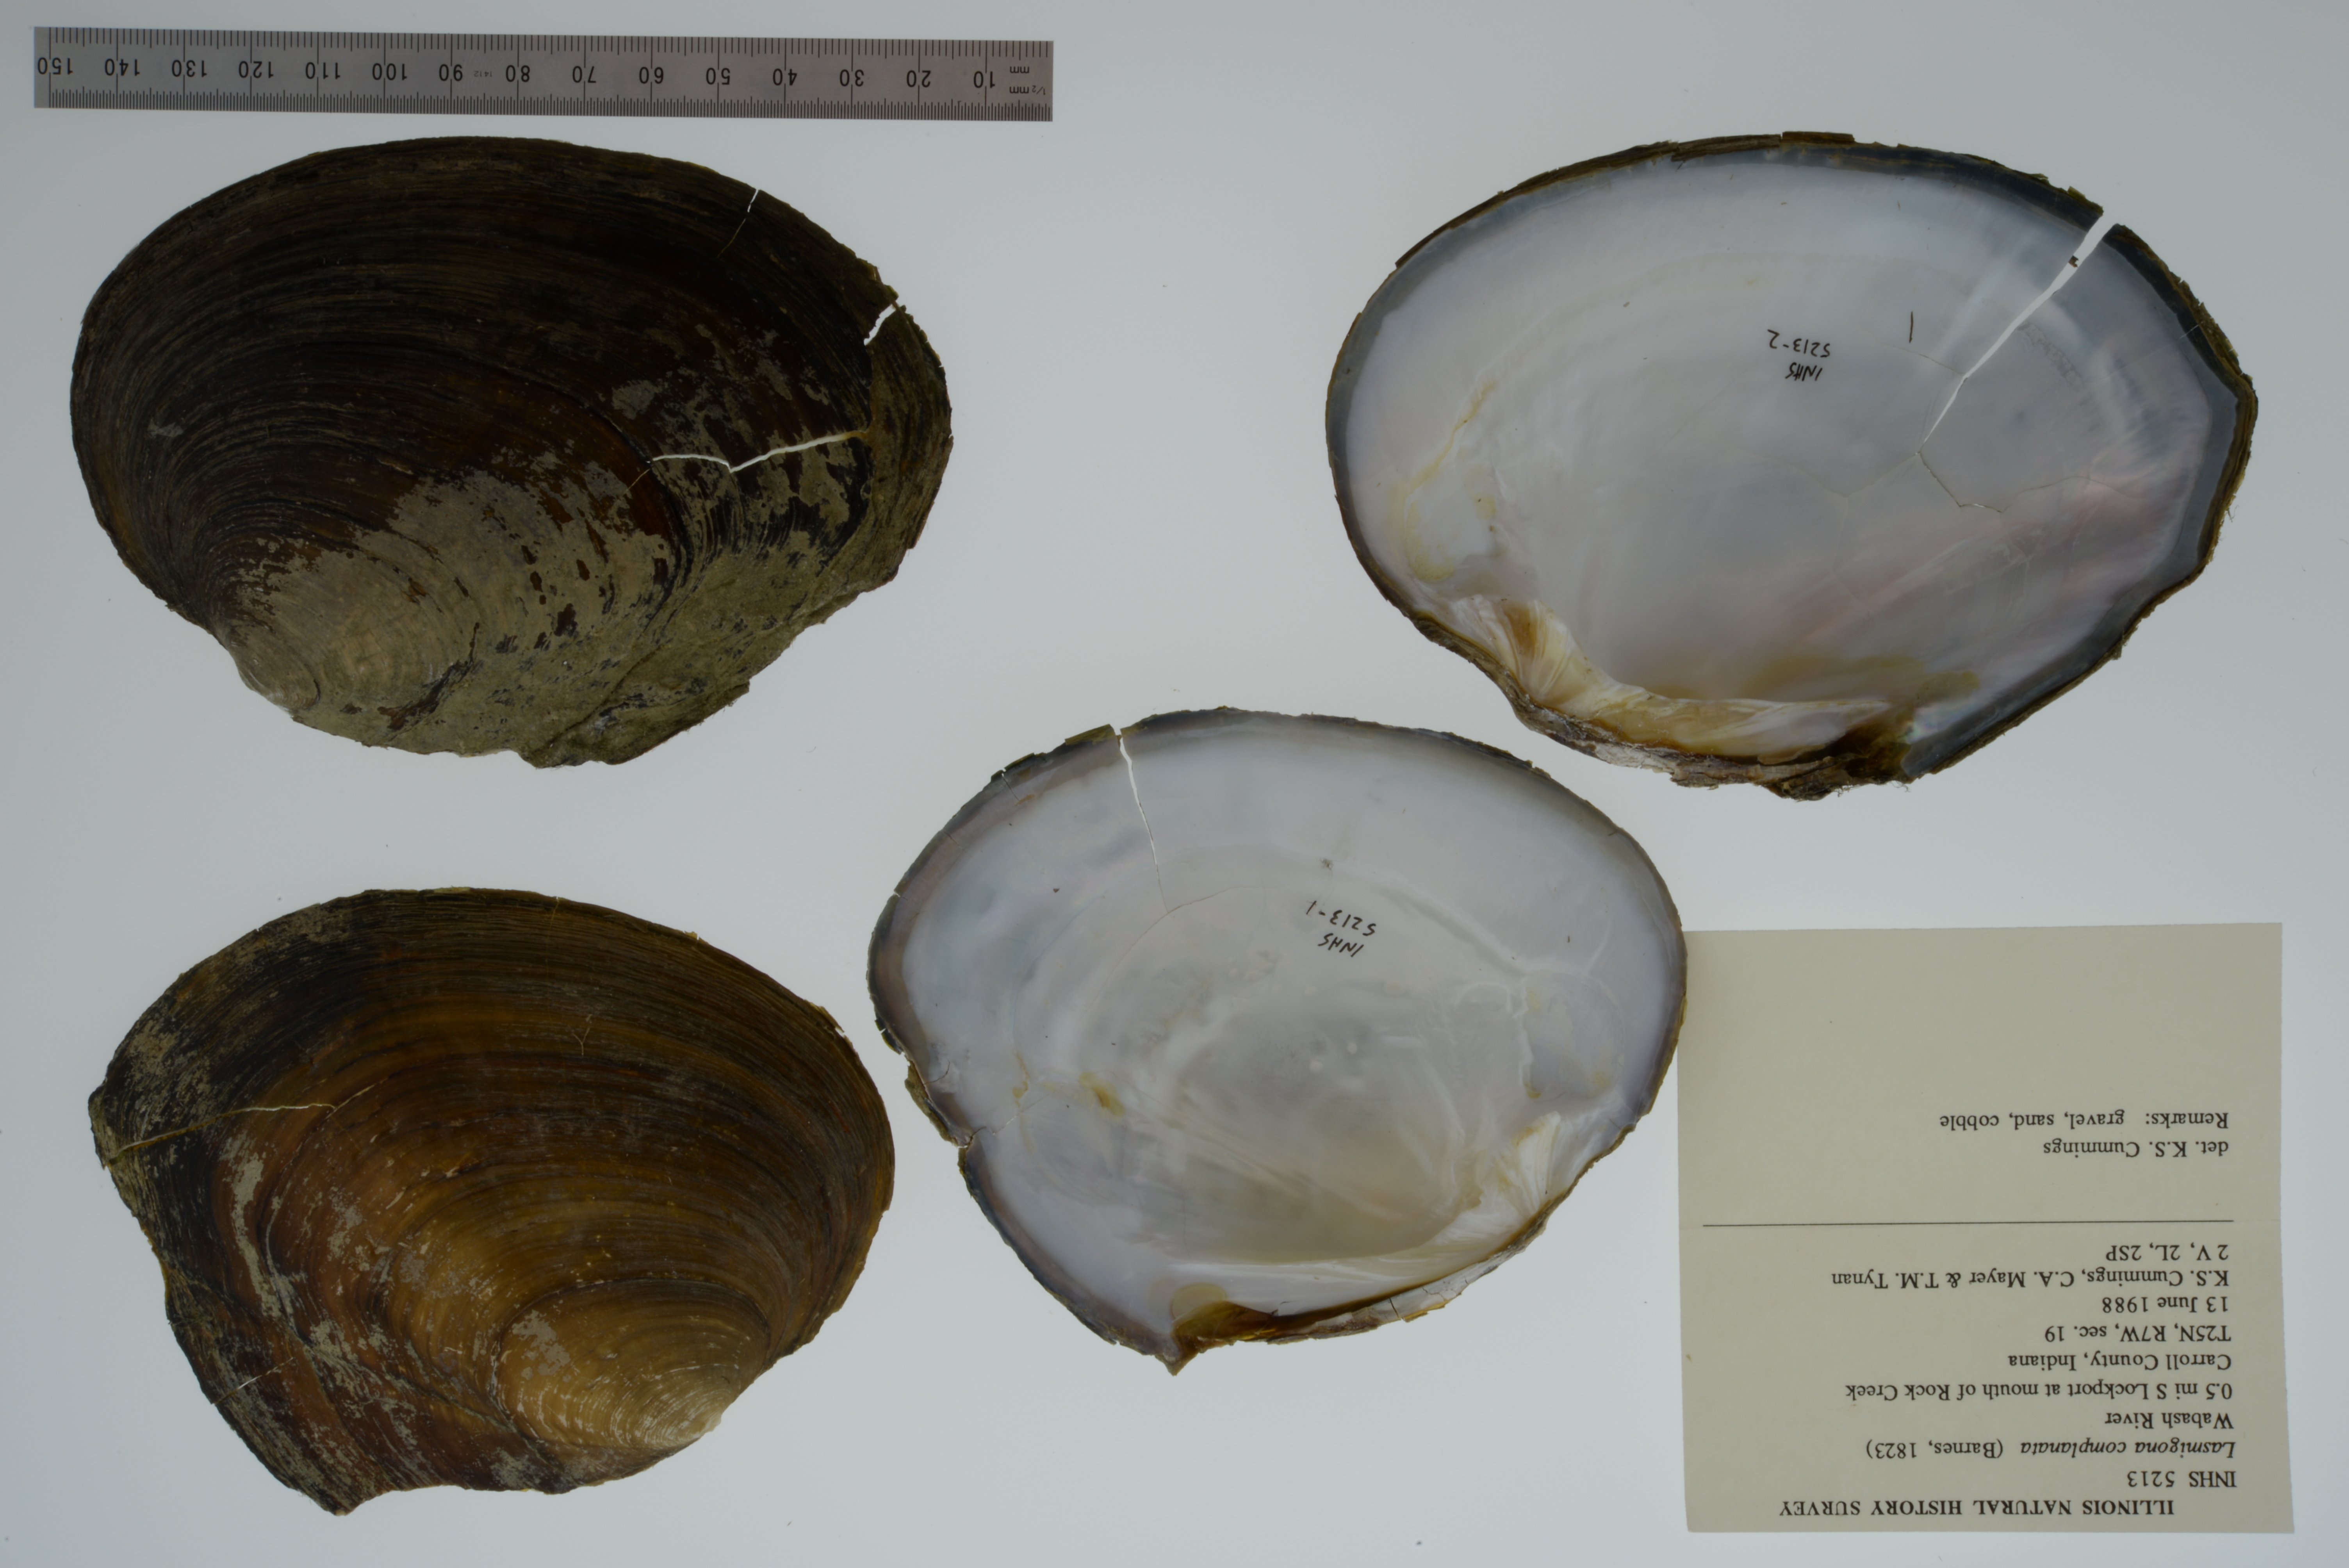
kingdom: Animalia
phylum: Mollusca
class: Bivalvia
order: Unionida
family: Unionidae
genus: Lasmigona
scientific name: Lasmigona complanata
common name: White heelsplitter
